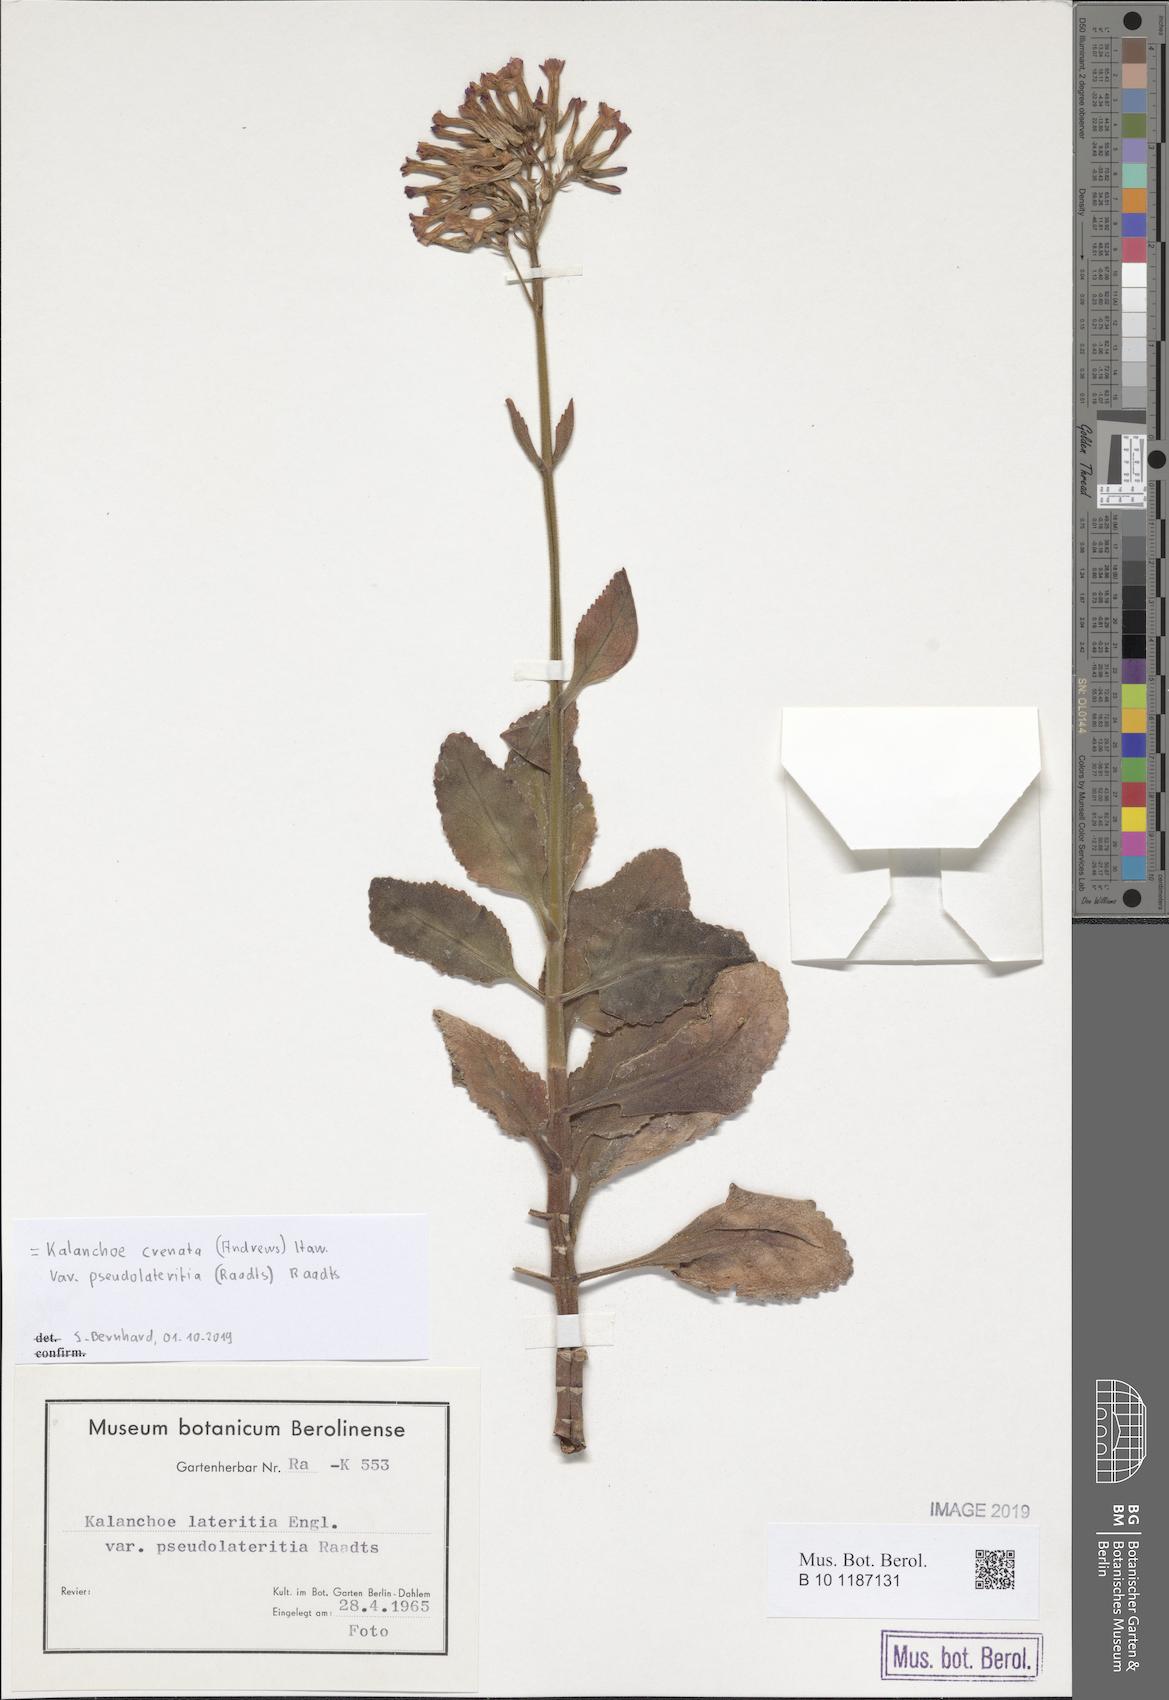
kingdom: Plantae
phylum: Tracheophyta
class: Magnoliopsida
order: Saxifragales
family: Crassulaceae
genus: Kalanchoe
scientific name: Kalanchoe lateritia
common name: Kalanchoe
